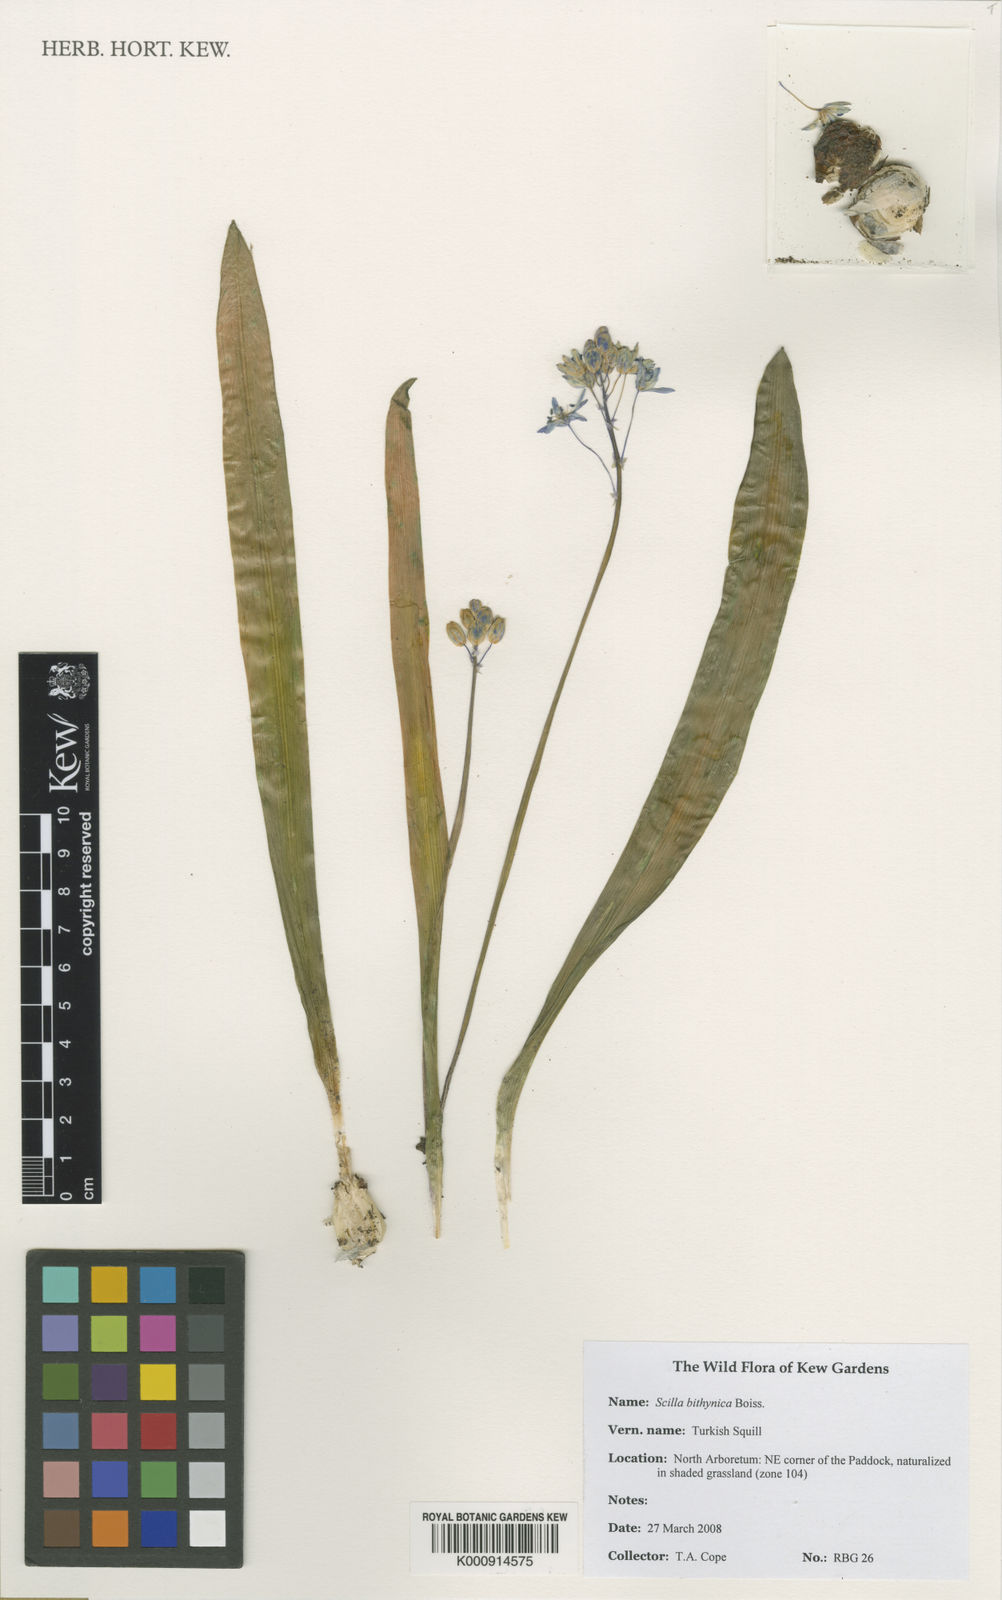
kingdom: Plantae
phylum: Tracheophyta
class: Liliopsida
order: Asparagales
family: Asparagaceae
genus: Scilla
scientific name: Scilla bithynica
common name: Turkish squill
